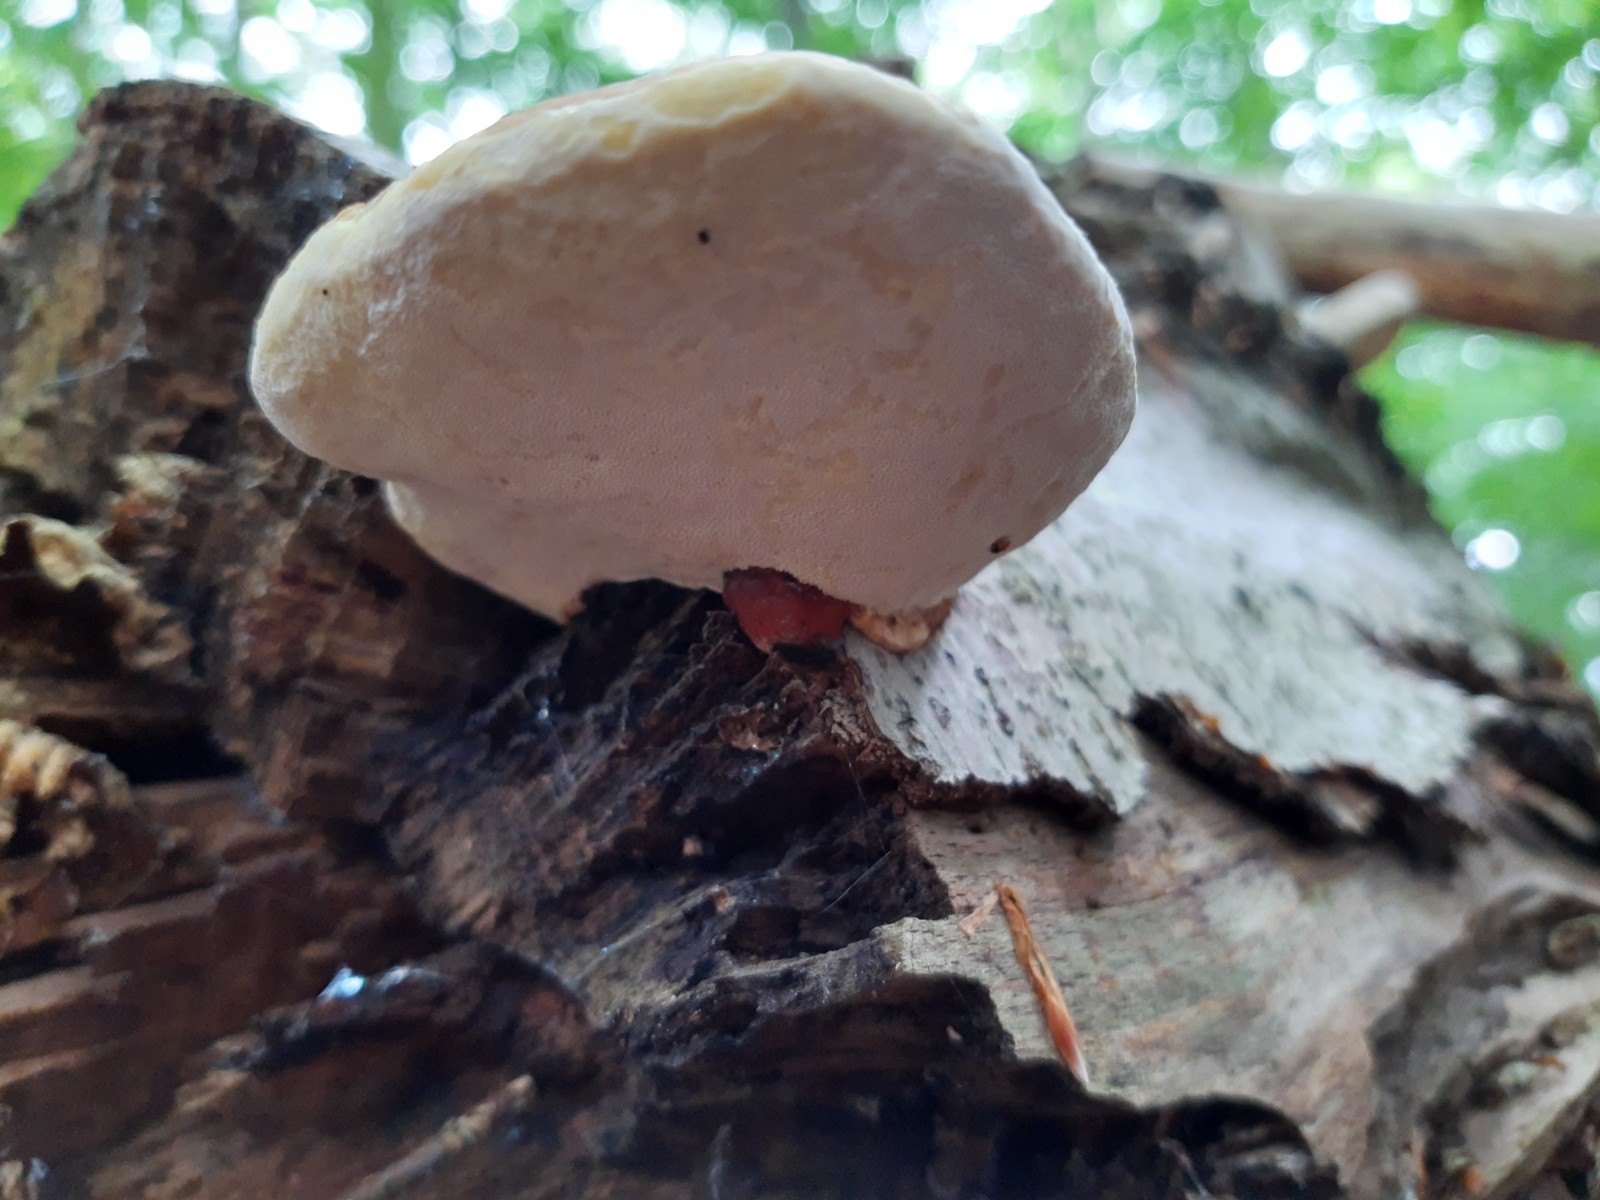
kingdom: Fungi
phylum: Basidiomycota
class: Agaricomycetes
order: Polyporales
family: Fomitopsidaceae
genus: Fomitopsis
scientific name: Fomitopsis pinicola
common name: randbæltet hovporesvamp
